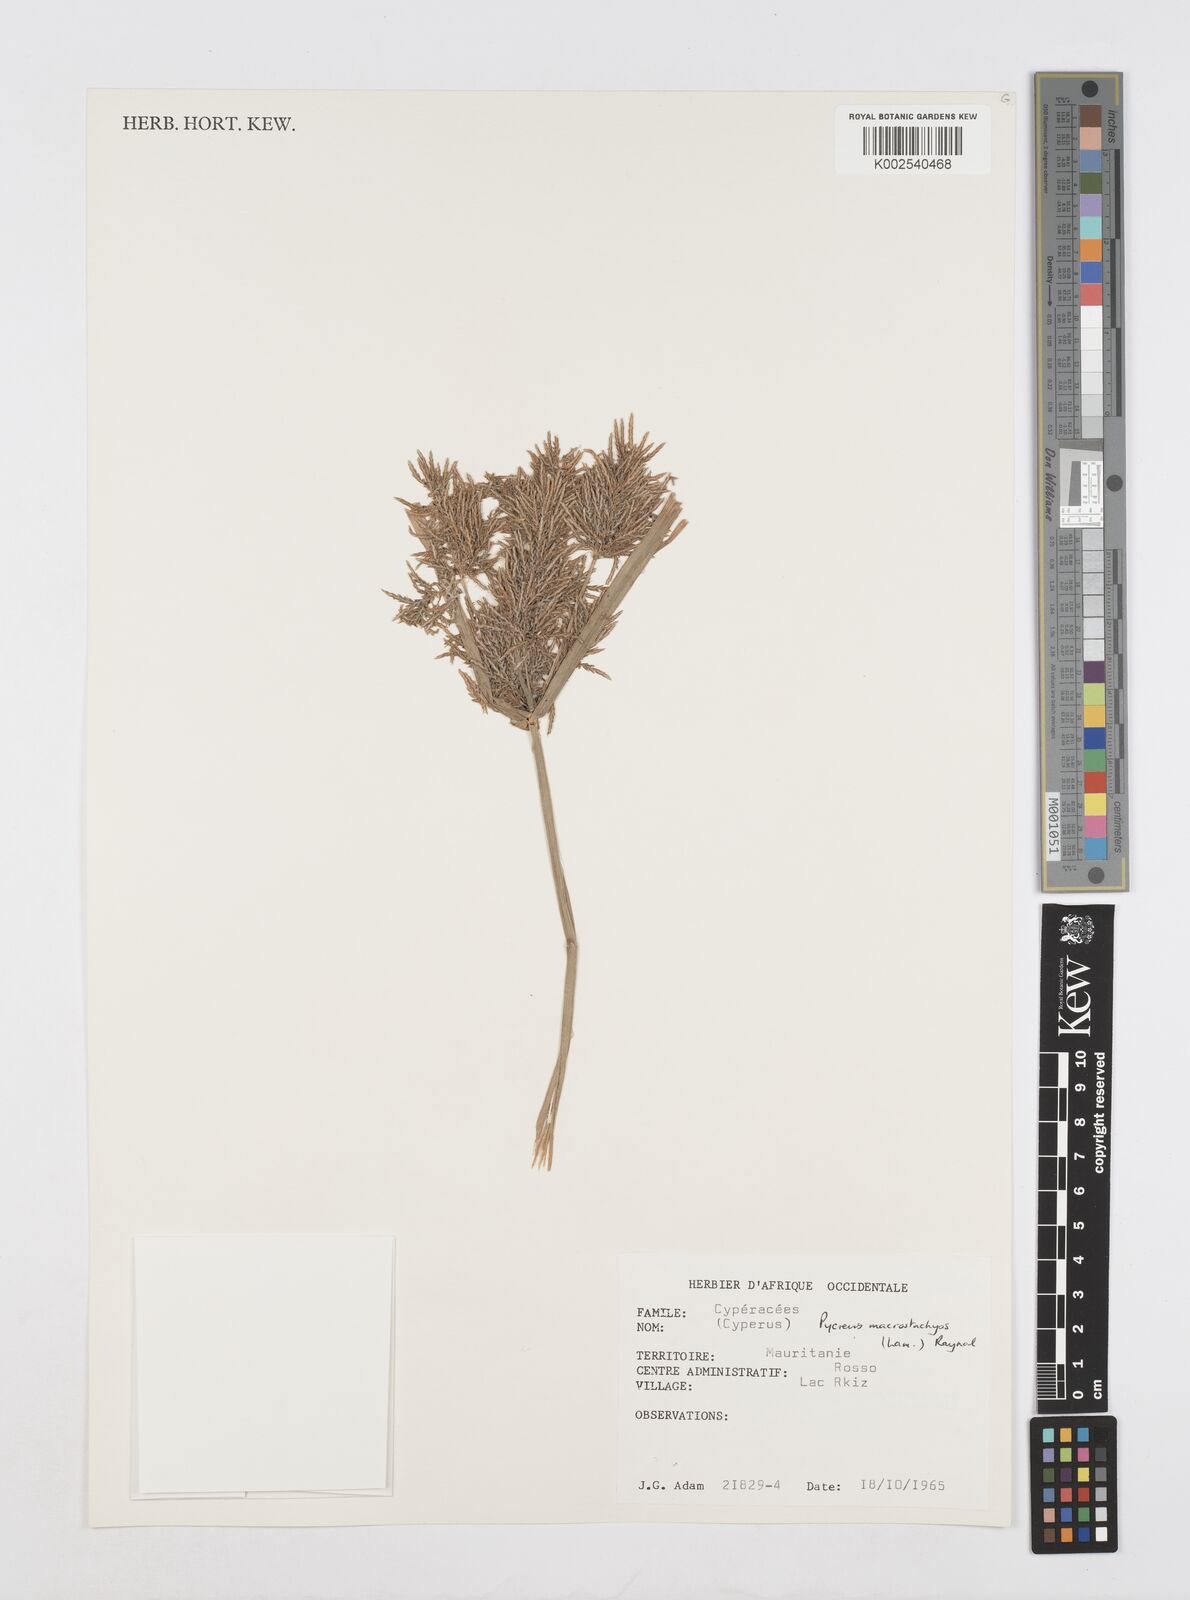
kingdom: Plantae
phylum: Tracheophyta
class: Liliopsida
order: Poales
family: Cyperaceae
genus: Cyperus
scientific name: Cyperus macrostachyos
